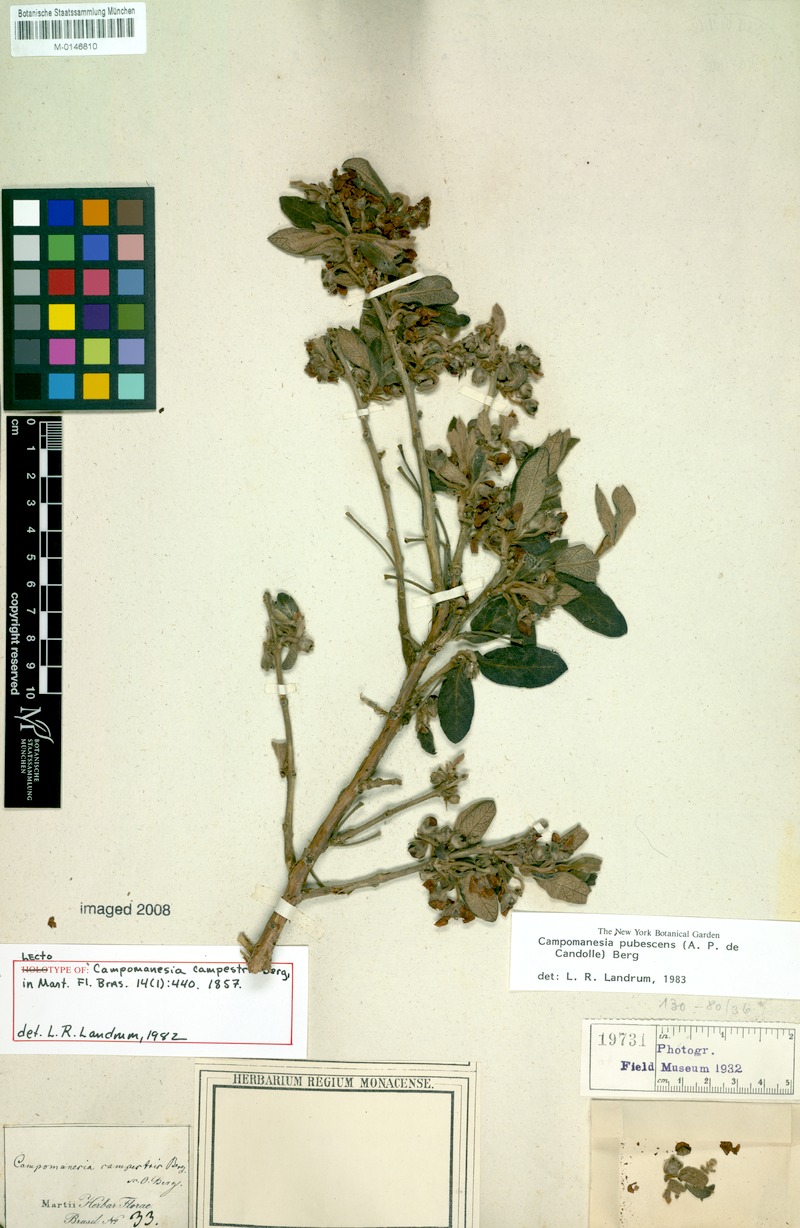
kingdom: Plantae
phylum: Tracheophyta
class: Magnoliopsida
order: Myrtales
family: Myrtaceae
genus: Campomanesia
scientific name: Campomanesia pubescens
